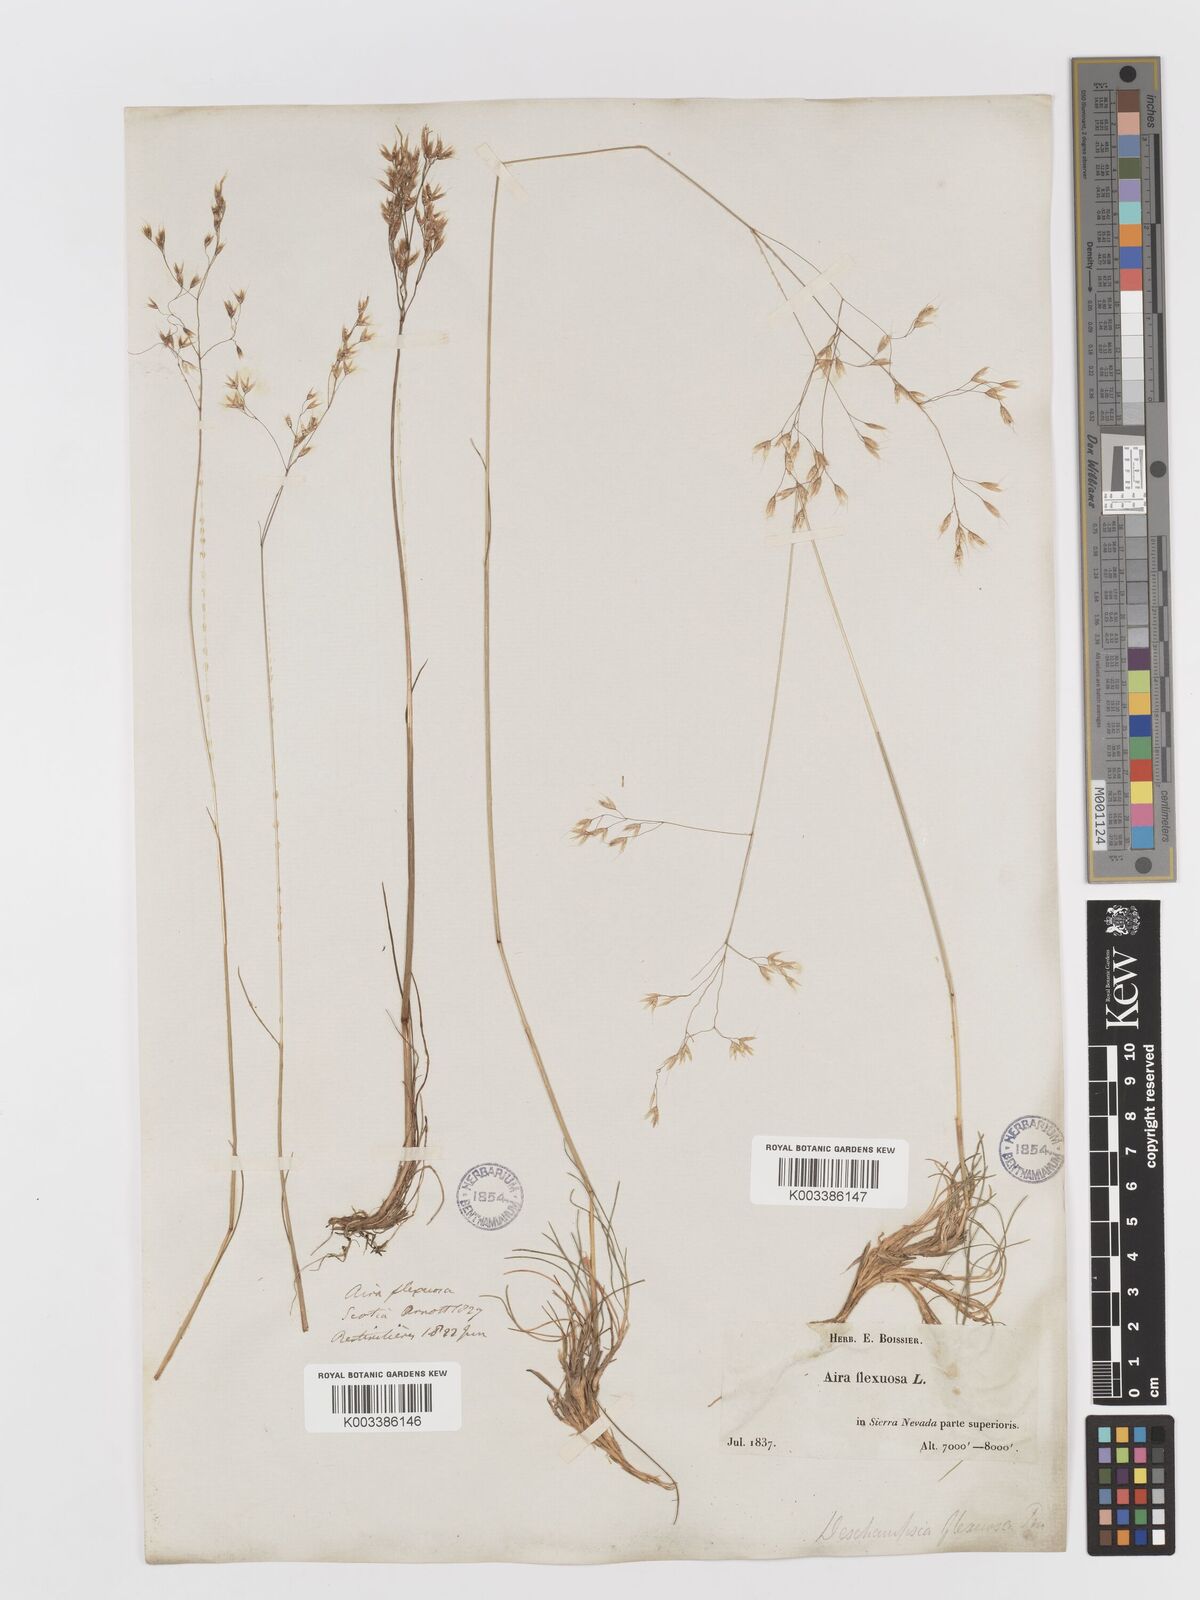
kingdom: Plantae
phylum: Tracheophyta
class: Liliopsida
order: Poales
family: Poaceae
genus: Avenella
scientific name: Avenella flexuosa
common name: Wavy hairgrass
